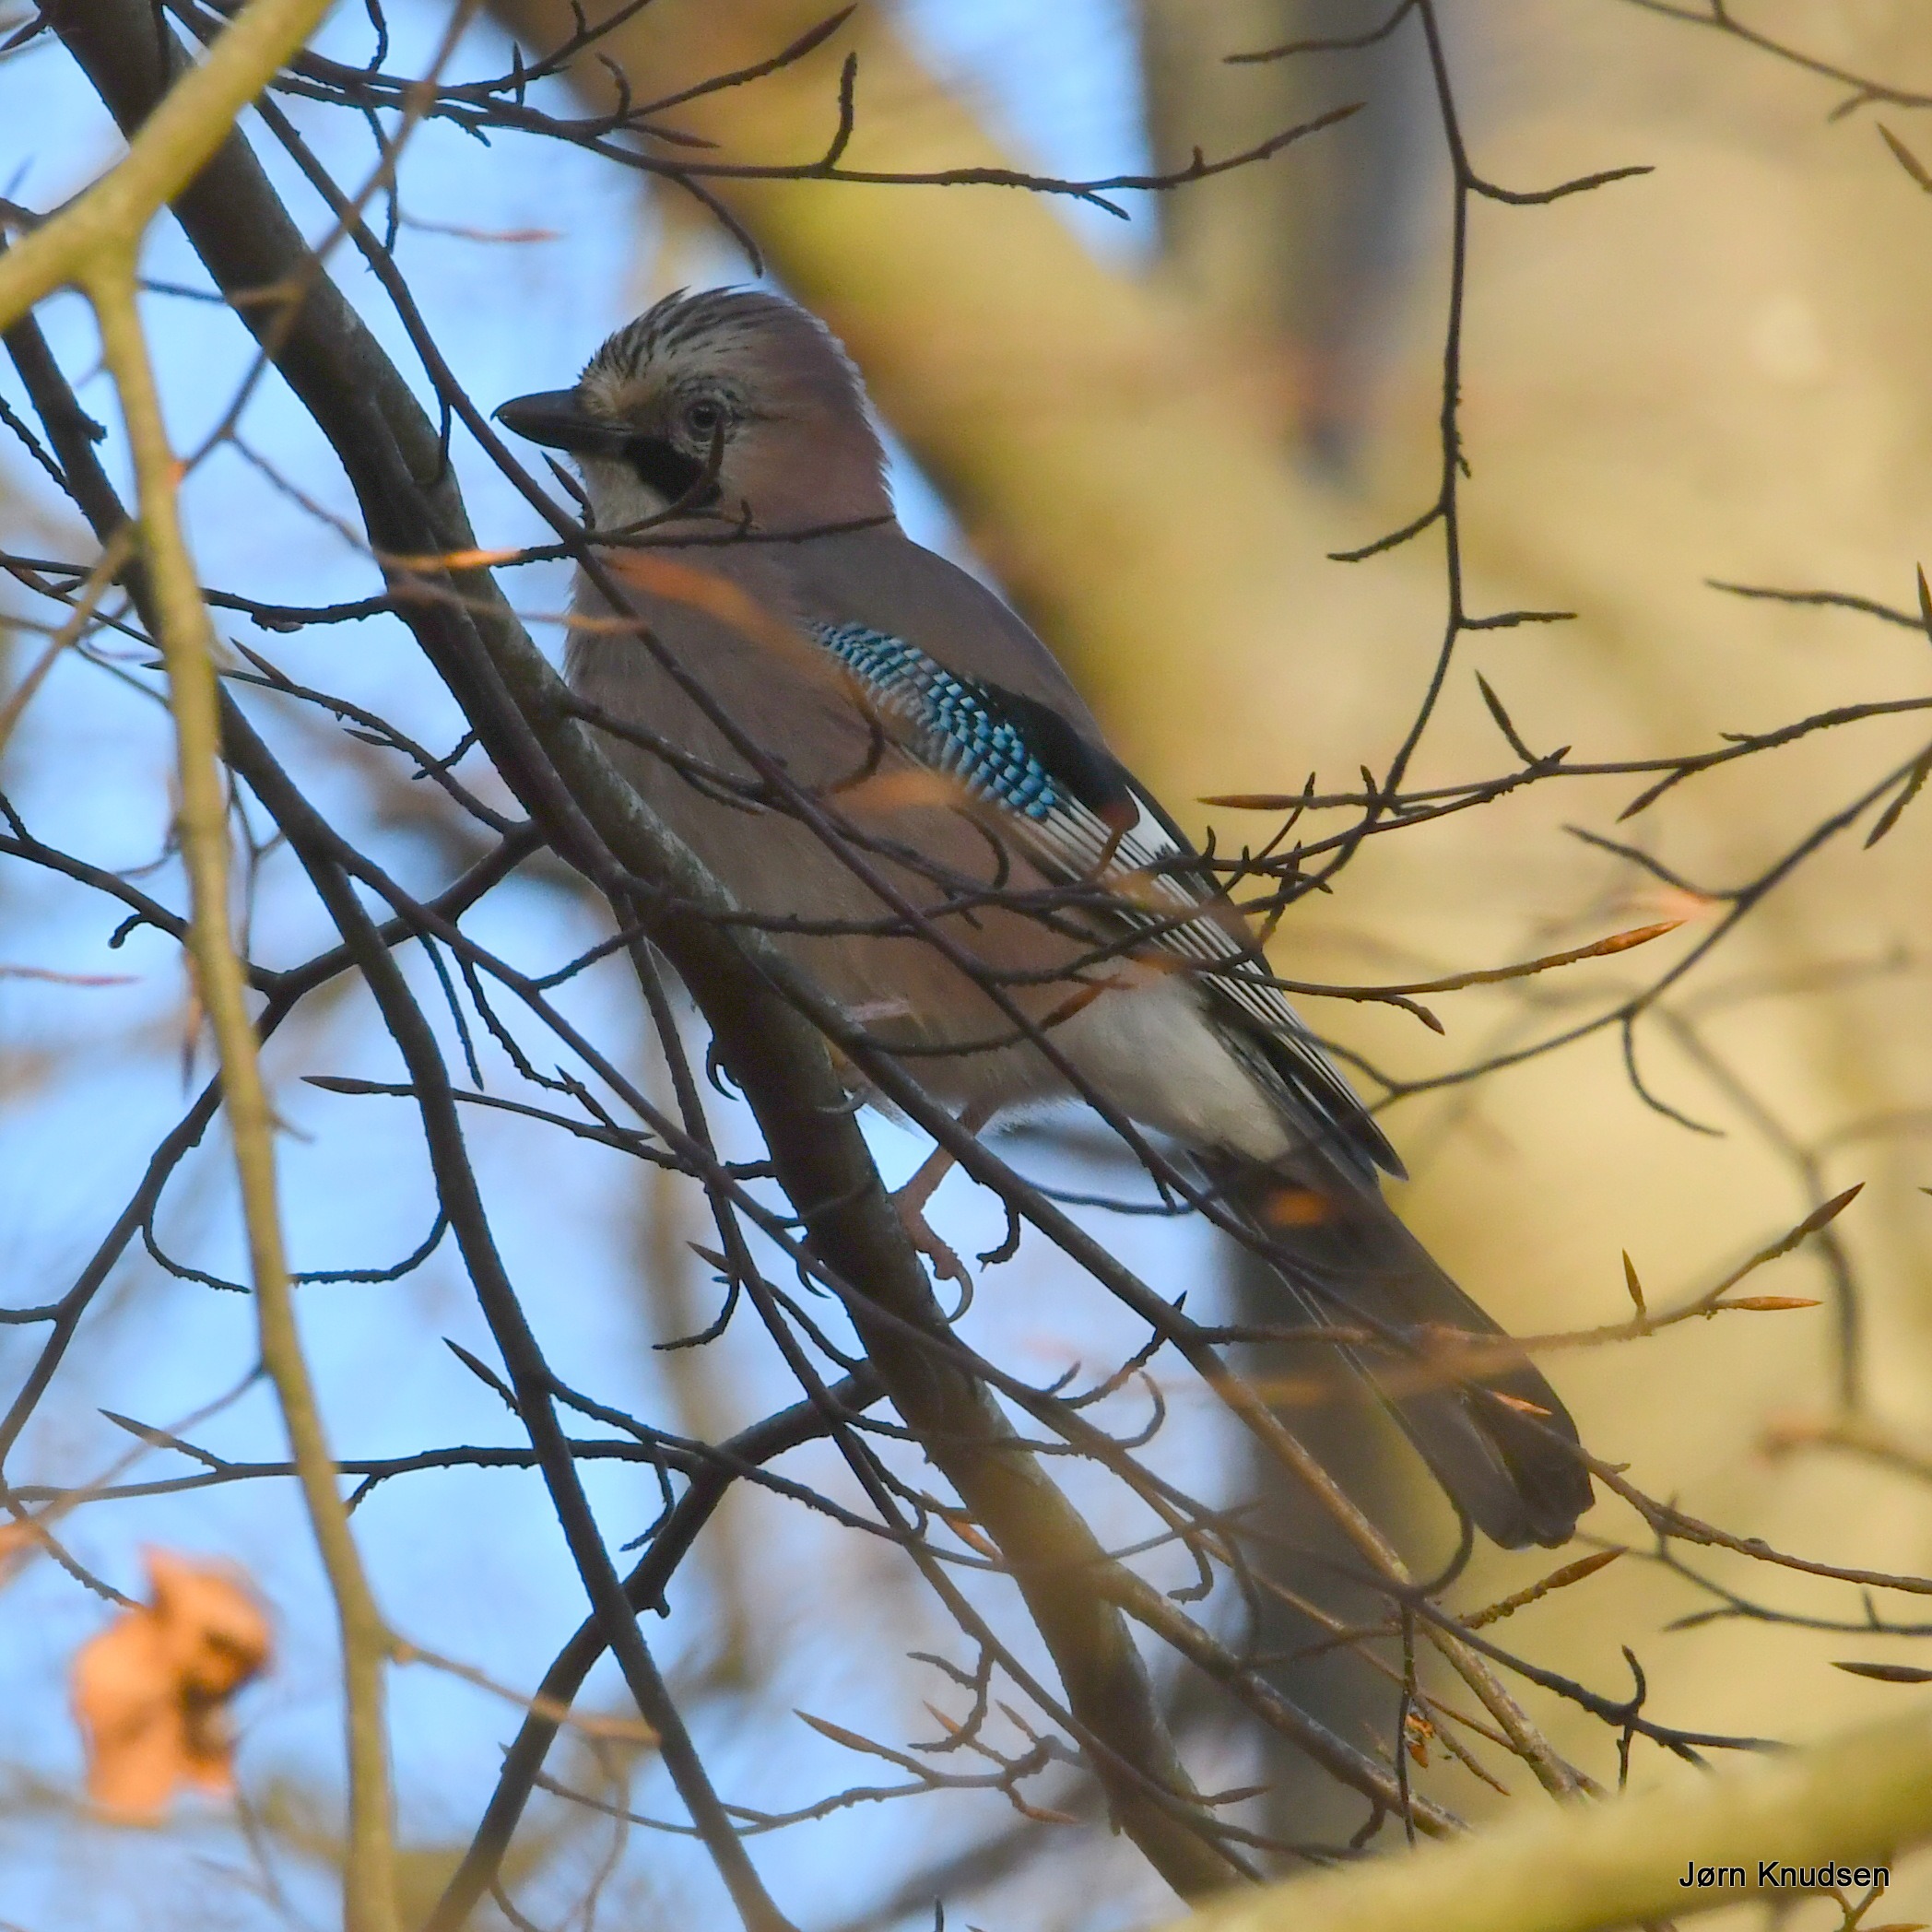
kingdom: Animalia
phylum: Chordata
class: Aves
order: Passeriformes
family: Corvidae
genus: Garrulus
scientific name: Garrulus glandarius
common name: Skovskade
